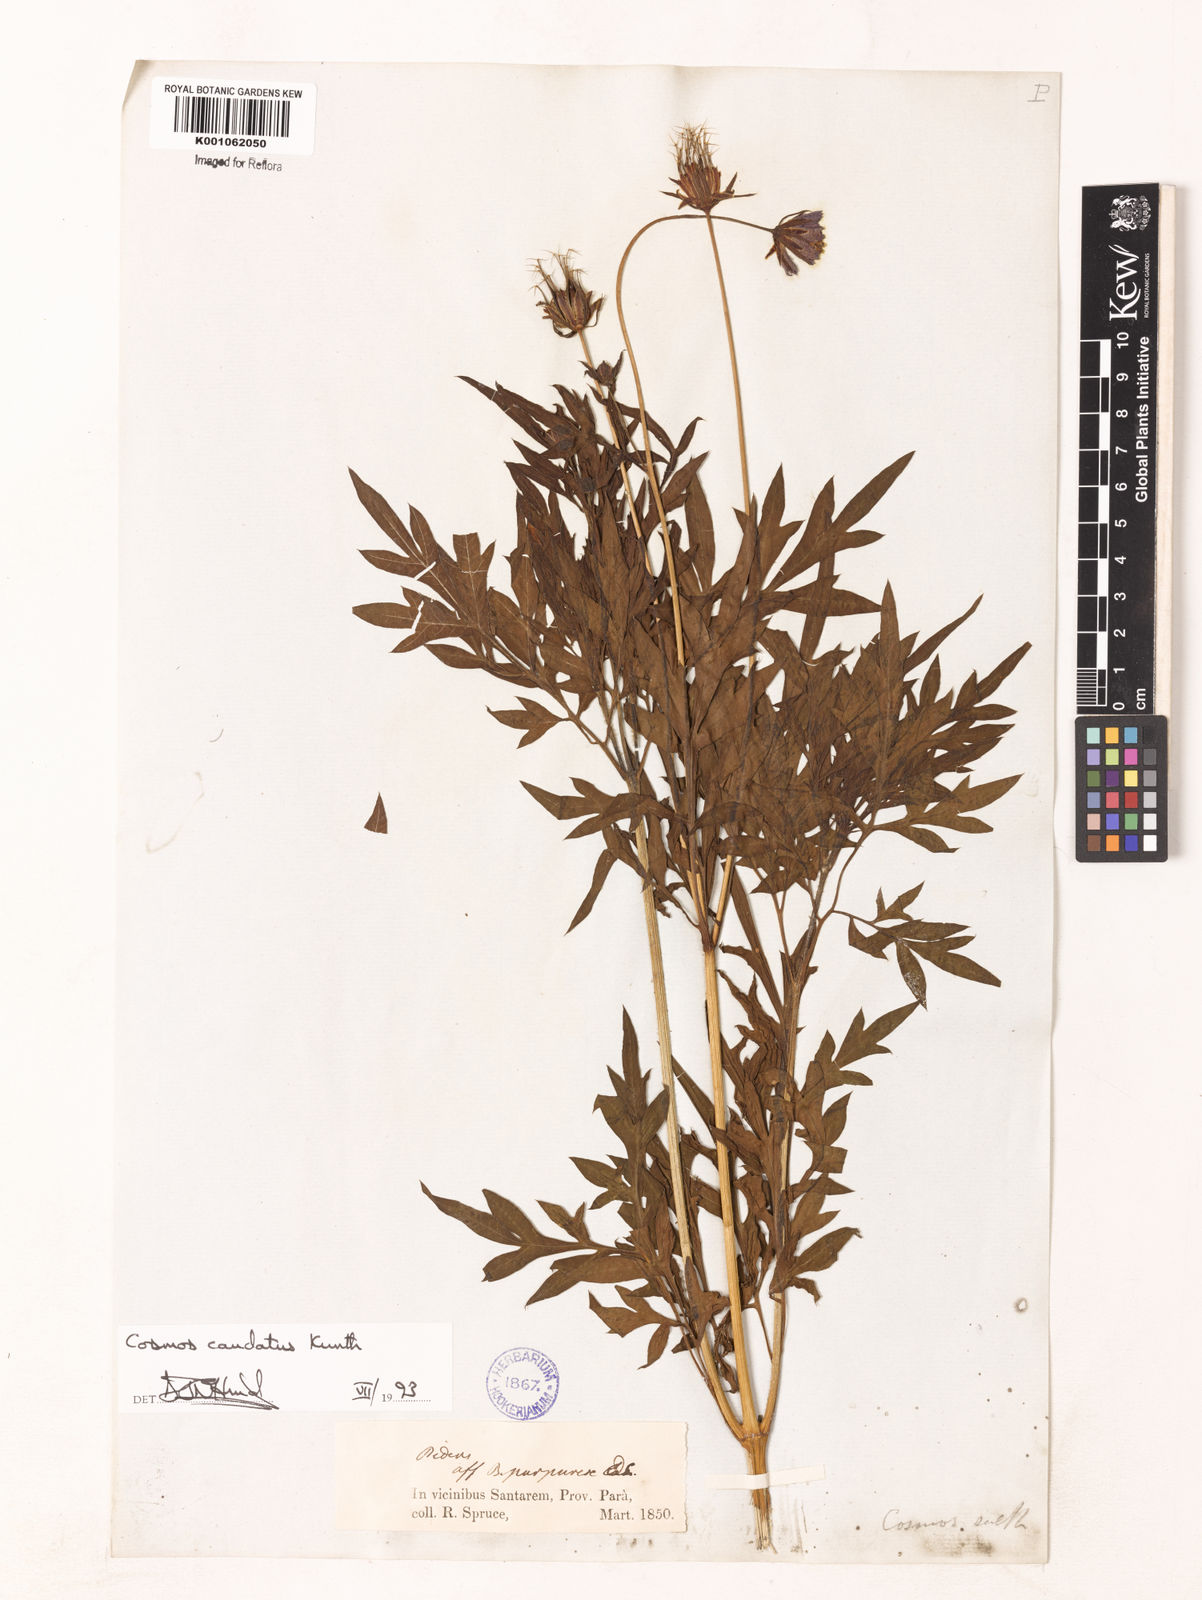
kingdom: Plantae
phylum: Tracheophyta
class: Magnoliopsida
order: Asterales
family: Asteraceae
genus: Cosmos
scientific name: Cosmos caudatus
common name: Wild cosmos
